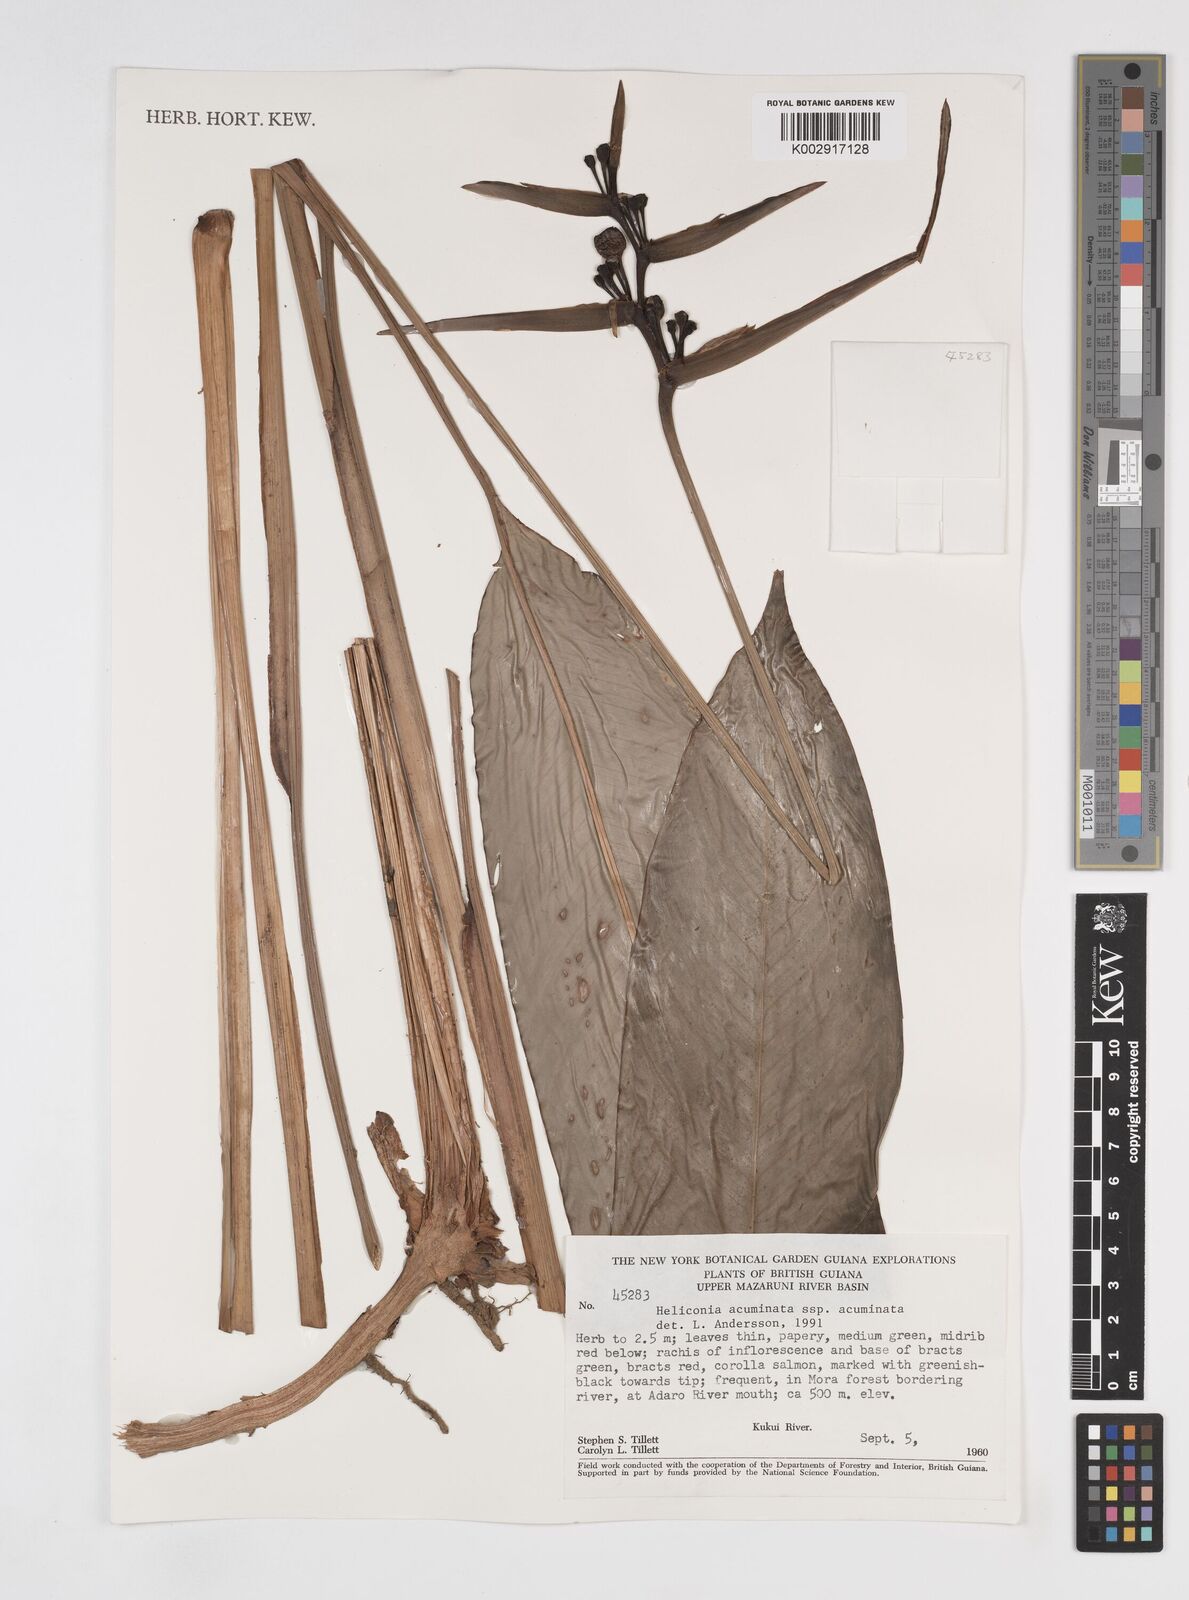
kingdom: Plantae
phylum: Tracheophyta
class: Liliopsida
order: Zingiberales
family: Heliconiaceae
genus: Heliconia
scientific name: Heliconia acuminata
